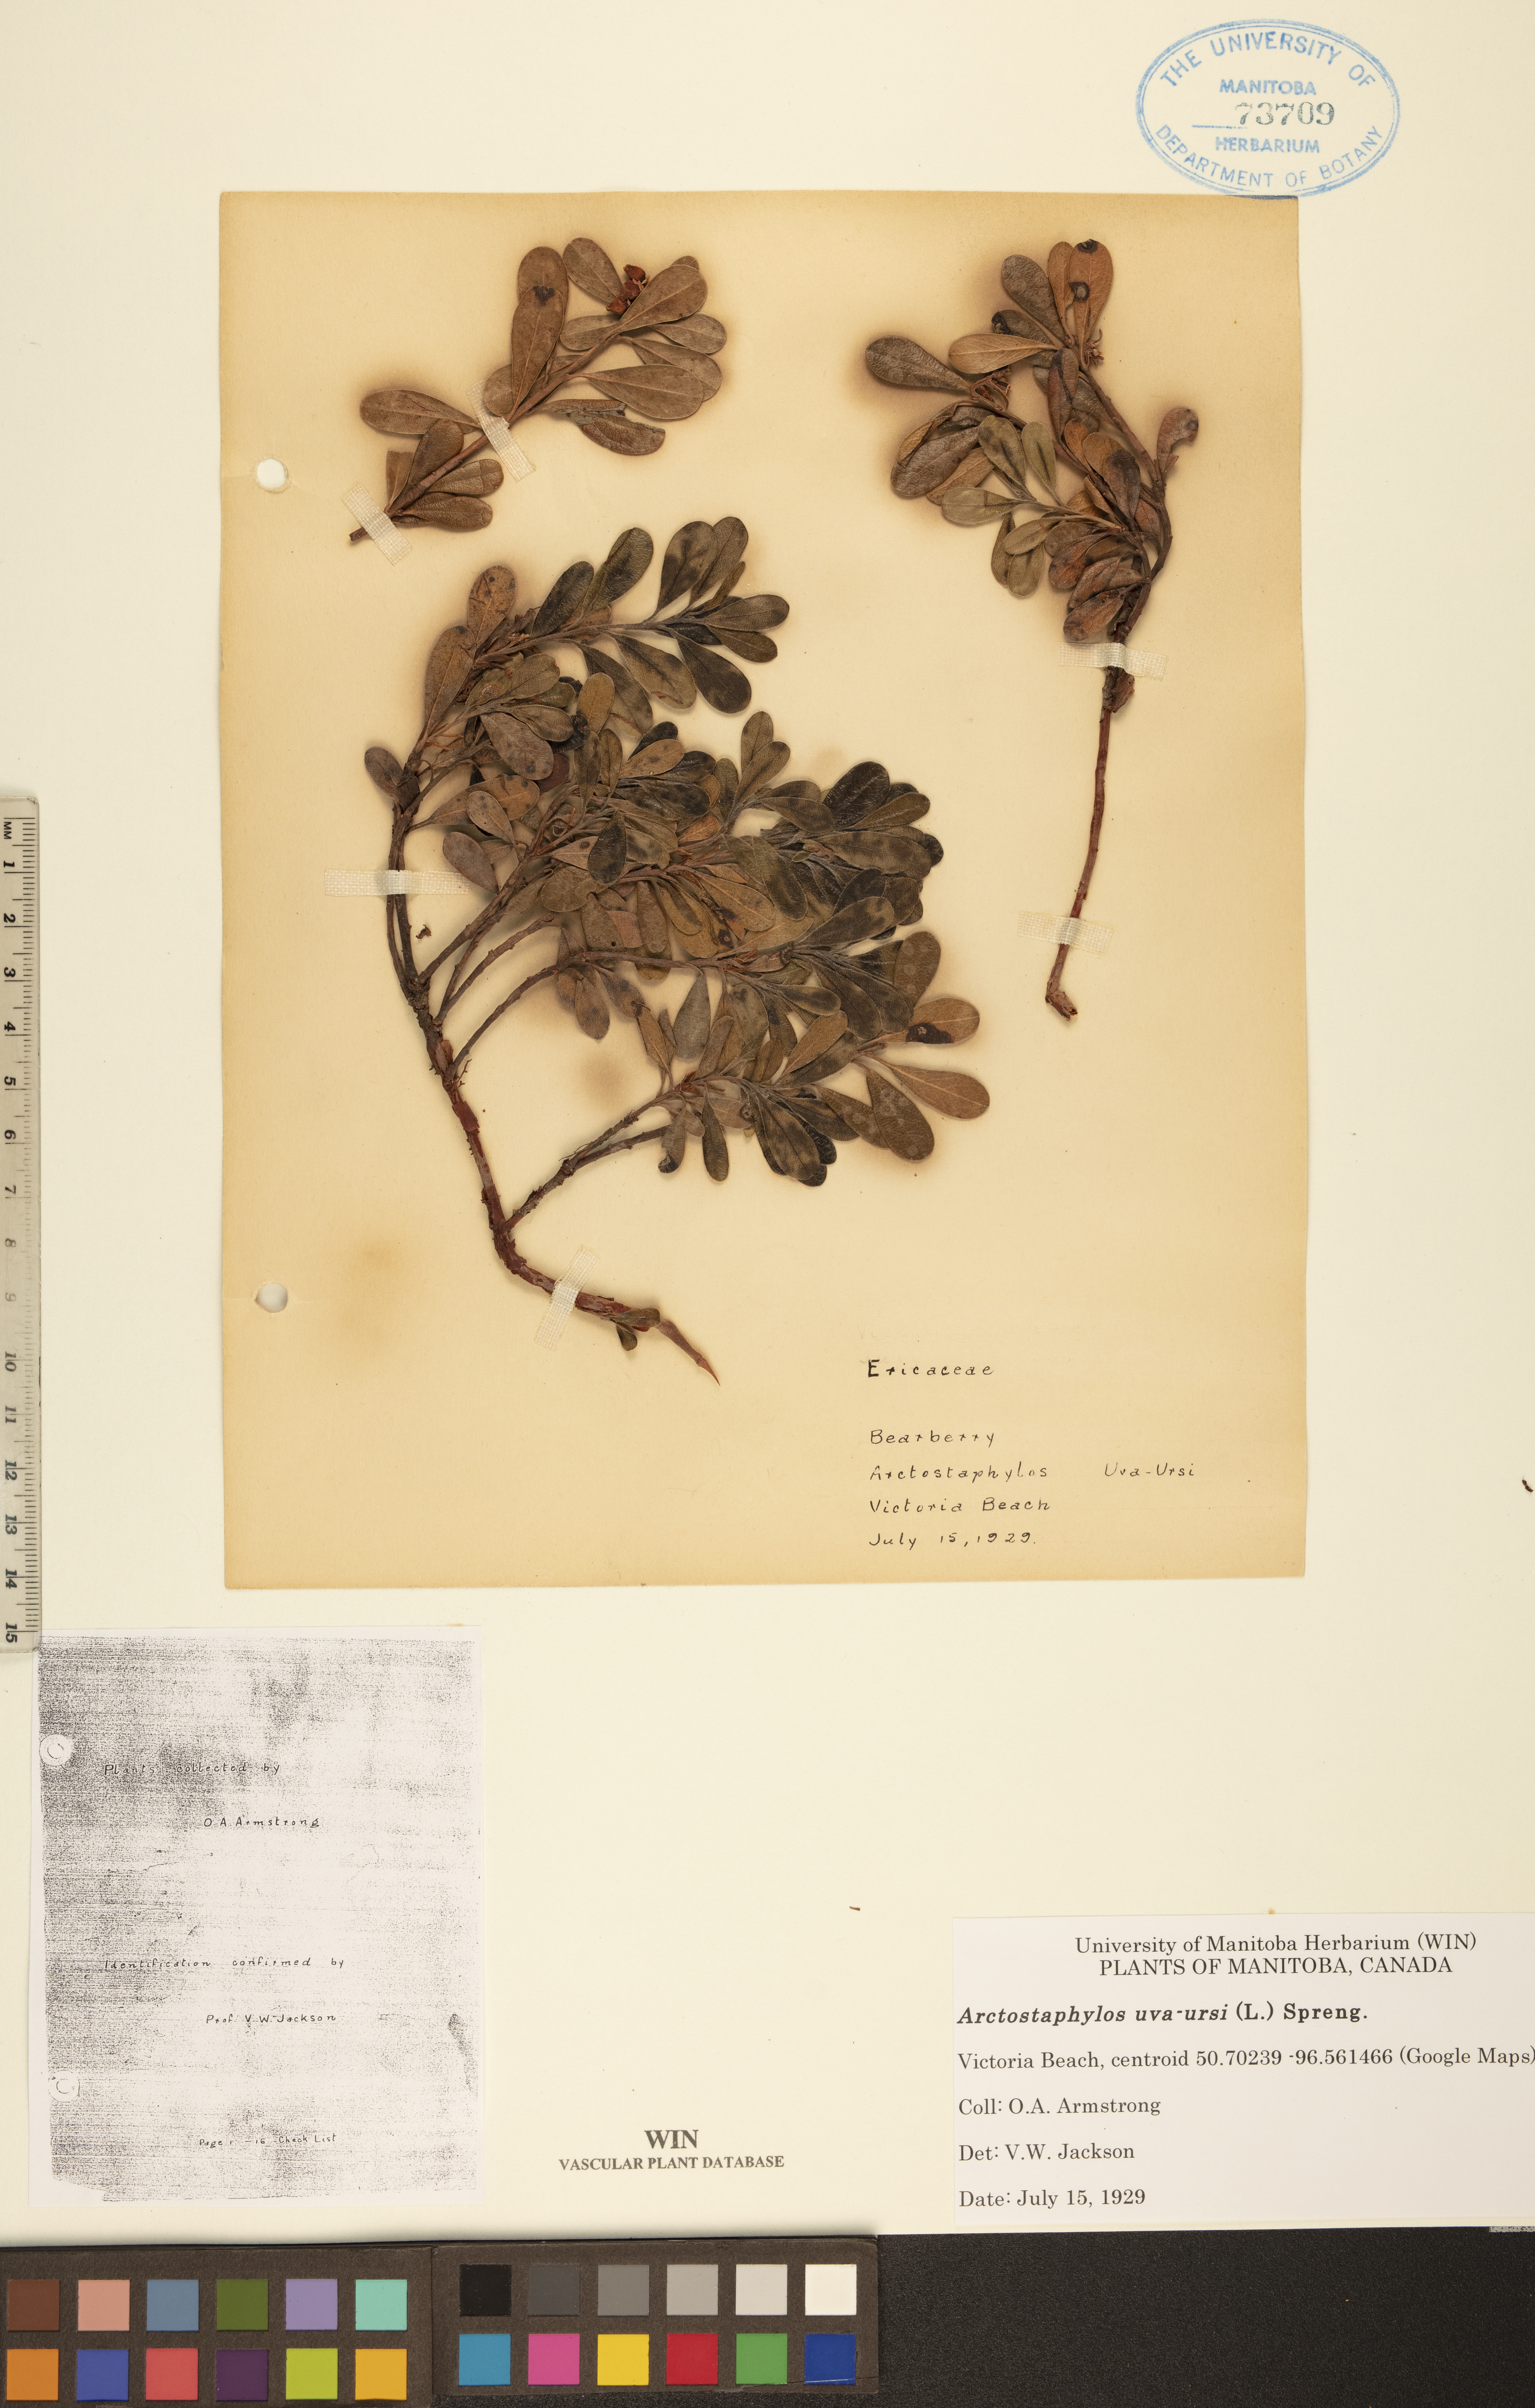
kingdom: Plantae
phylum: Tracheophyta
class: Magnoliopsida
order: Ericales
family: Ericaceae
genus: Arctostaphylos
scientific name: Arctostaphylos uva-ursi
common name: Bearberry
